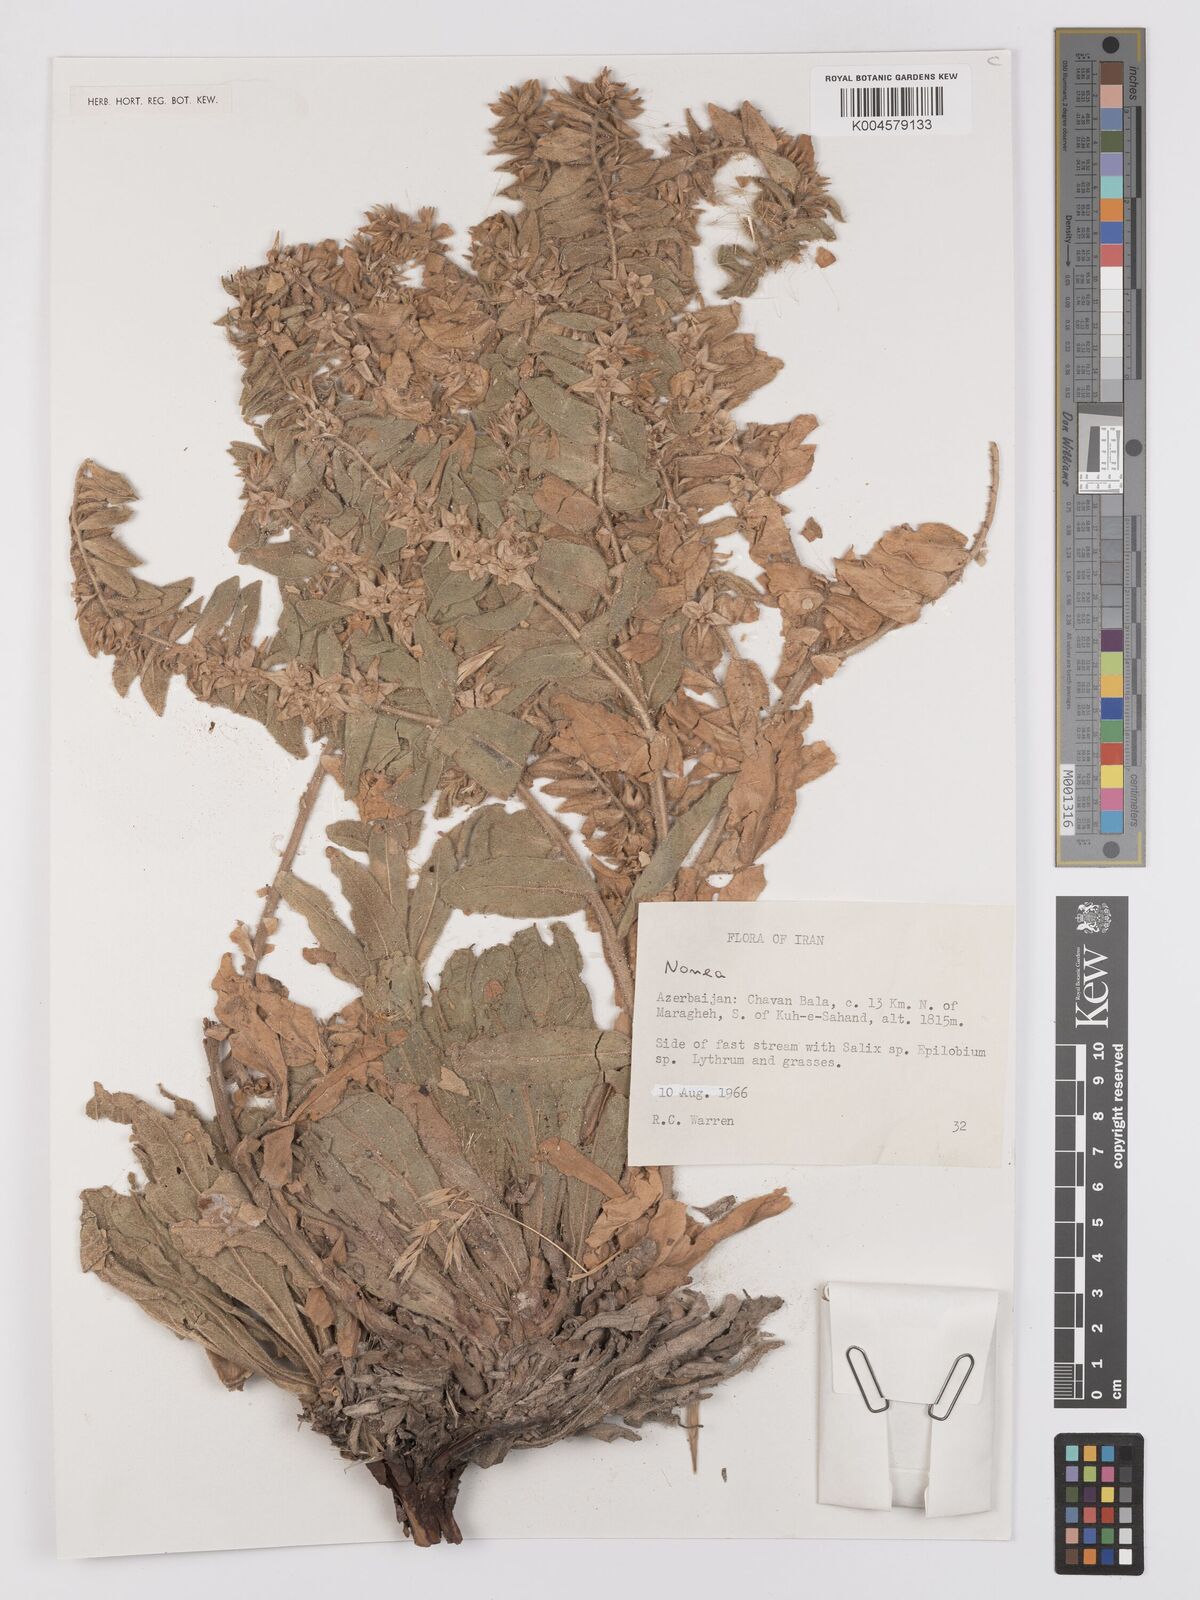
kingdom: Plantae
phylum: Tracheophyta
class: Magnoliopsida
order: Boraginales
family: Boraginaceae
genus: Nonea
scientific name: Nonea
